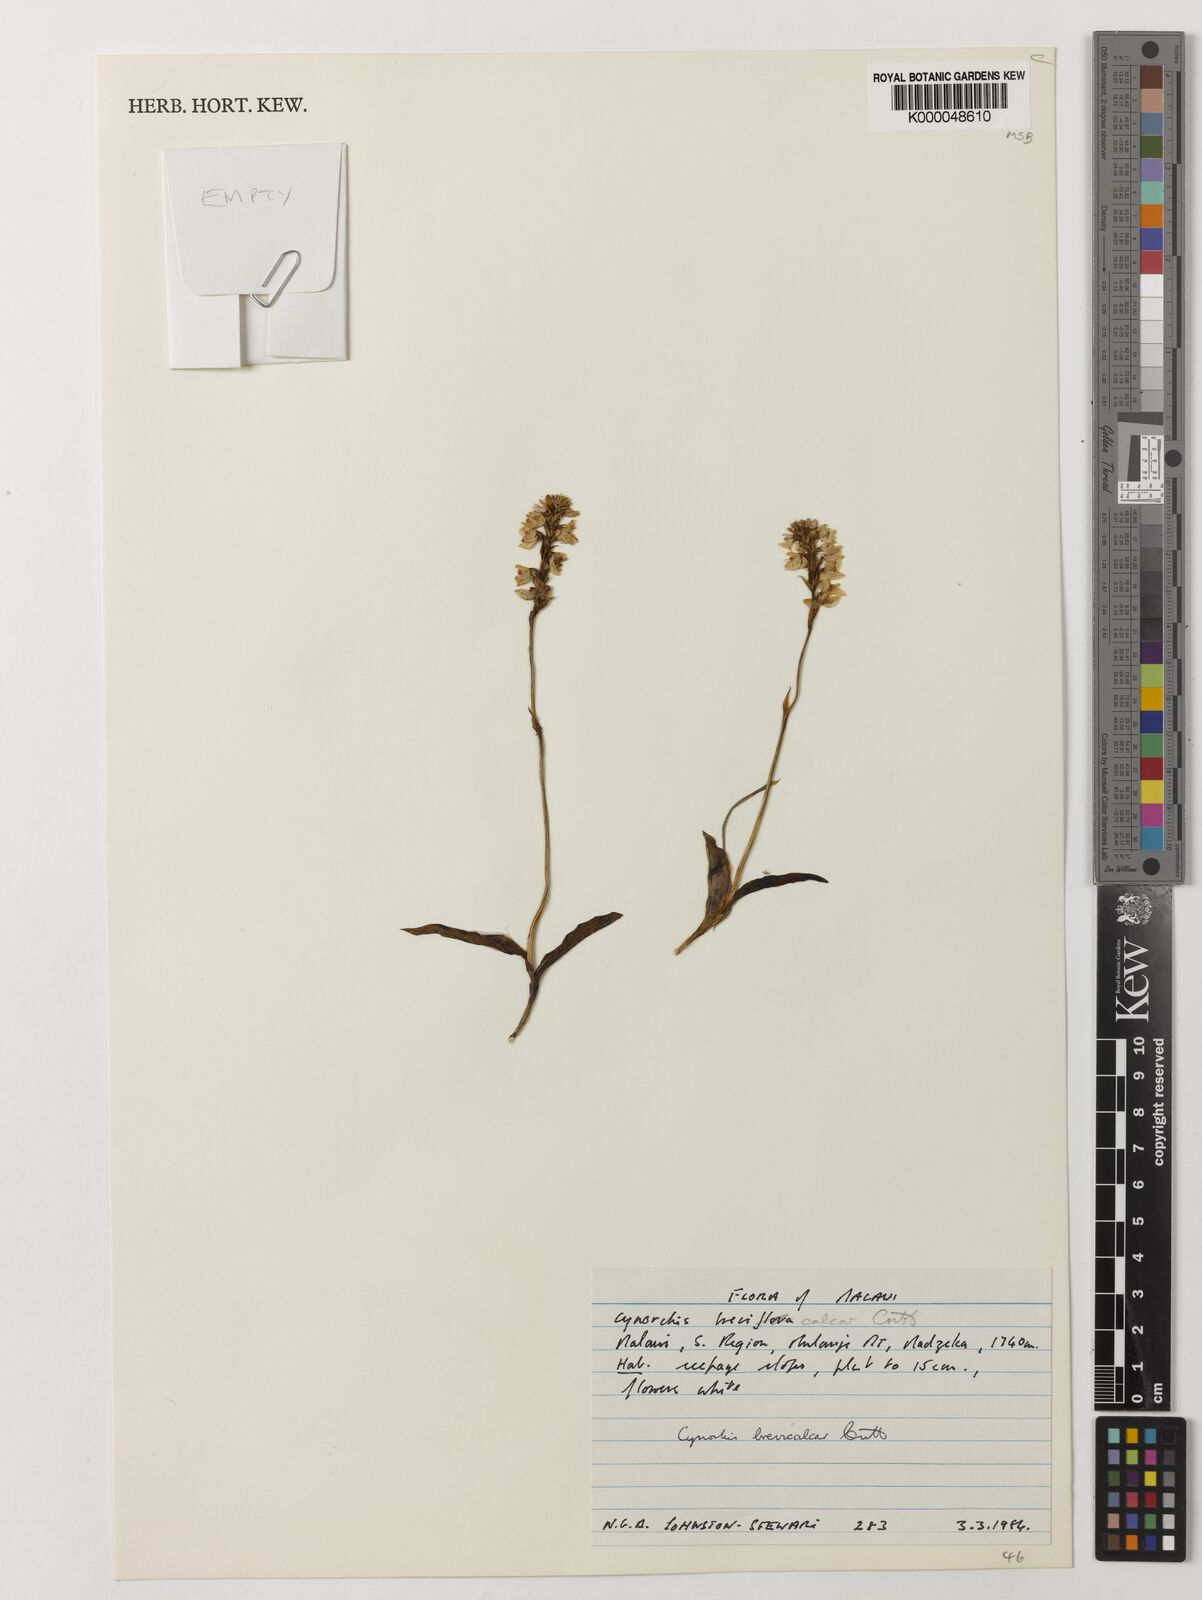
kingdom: Plantae
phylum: Tracheophyta
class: Liliopsida
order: Asparagales
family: Orchidaceae
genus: Cynorkis
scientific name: Cynorkis brevicalcar
